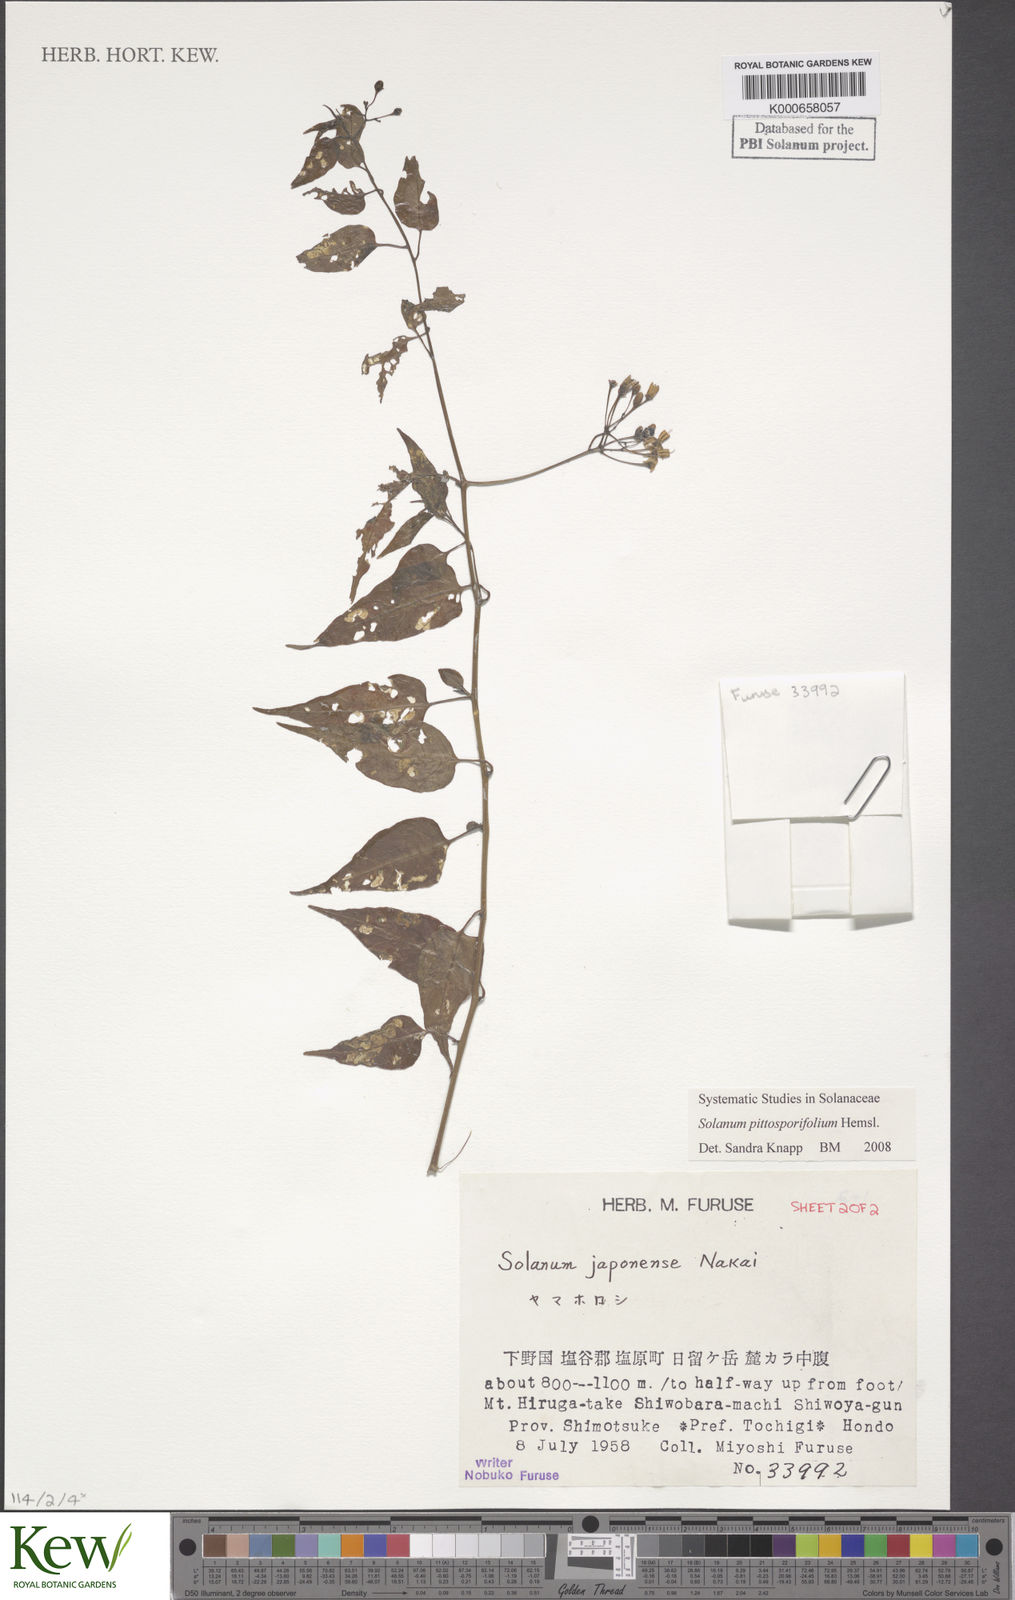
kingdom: Plantae
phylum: Tracheophyta
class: Magnoliopsida
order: Solanales
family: Solanaceae
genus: Solanum
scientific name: Solanum pittosporifolium
